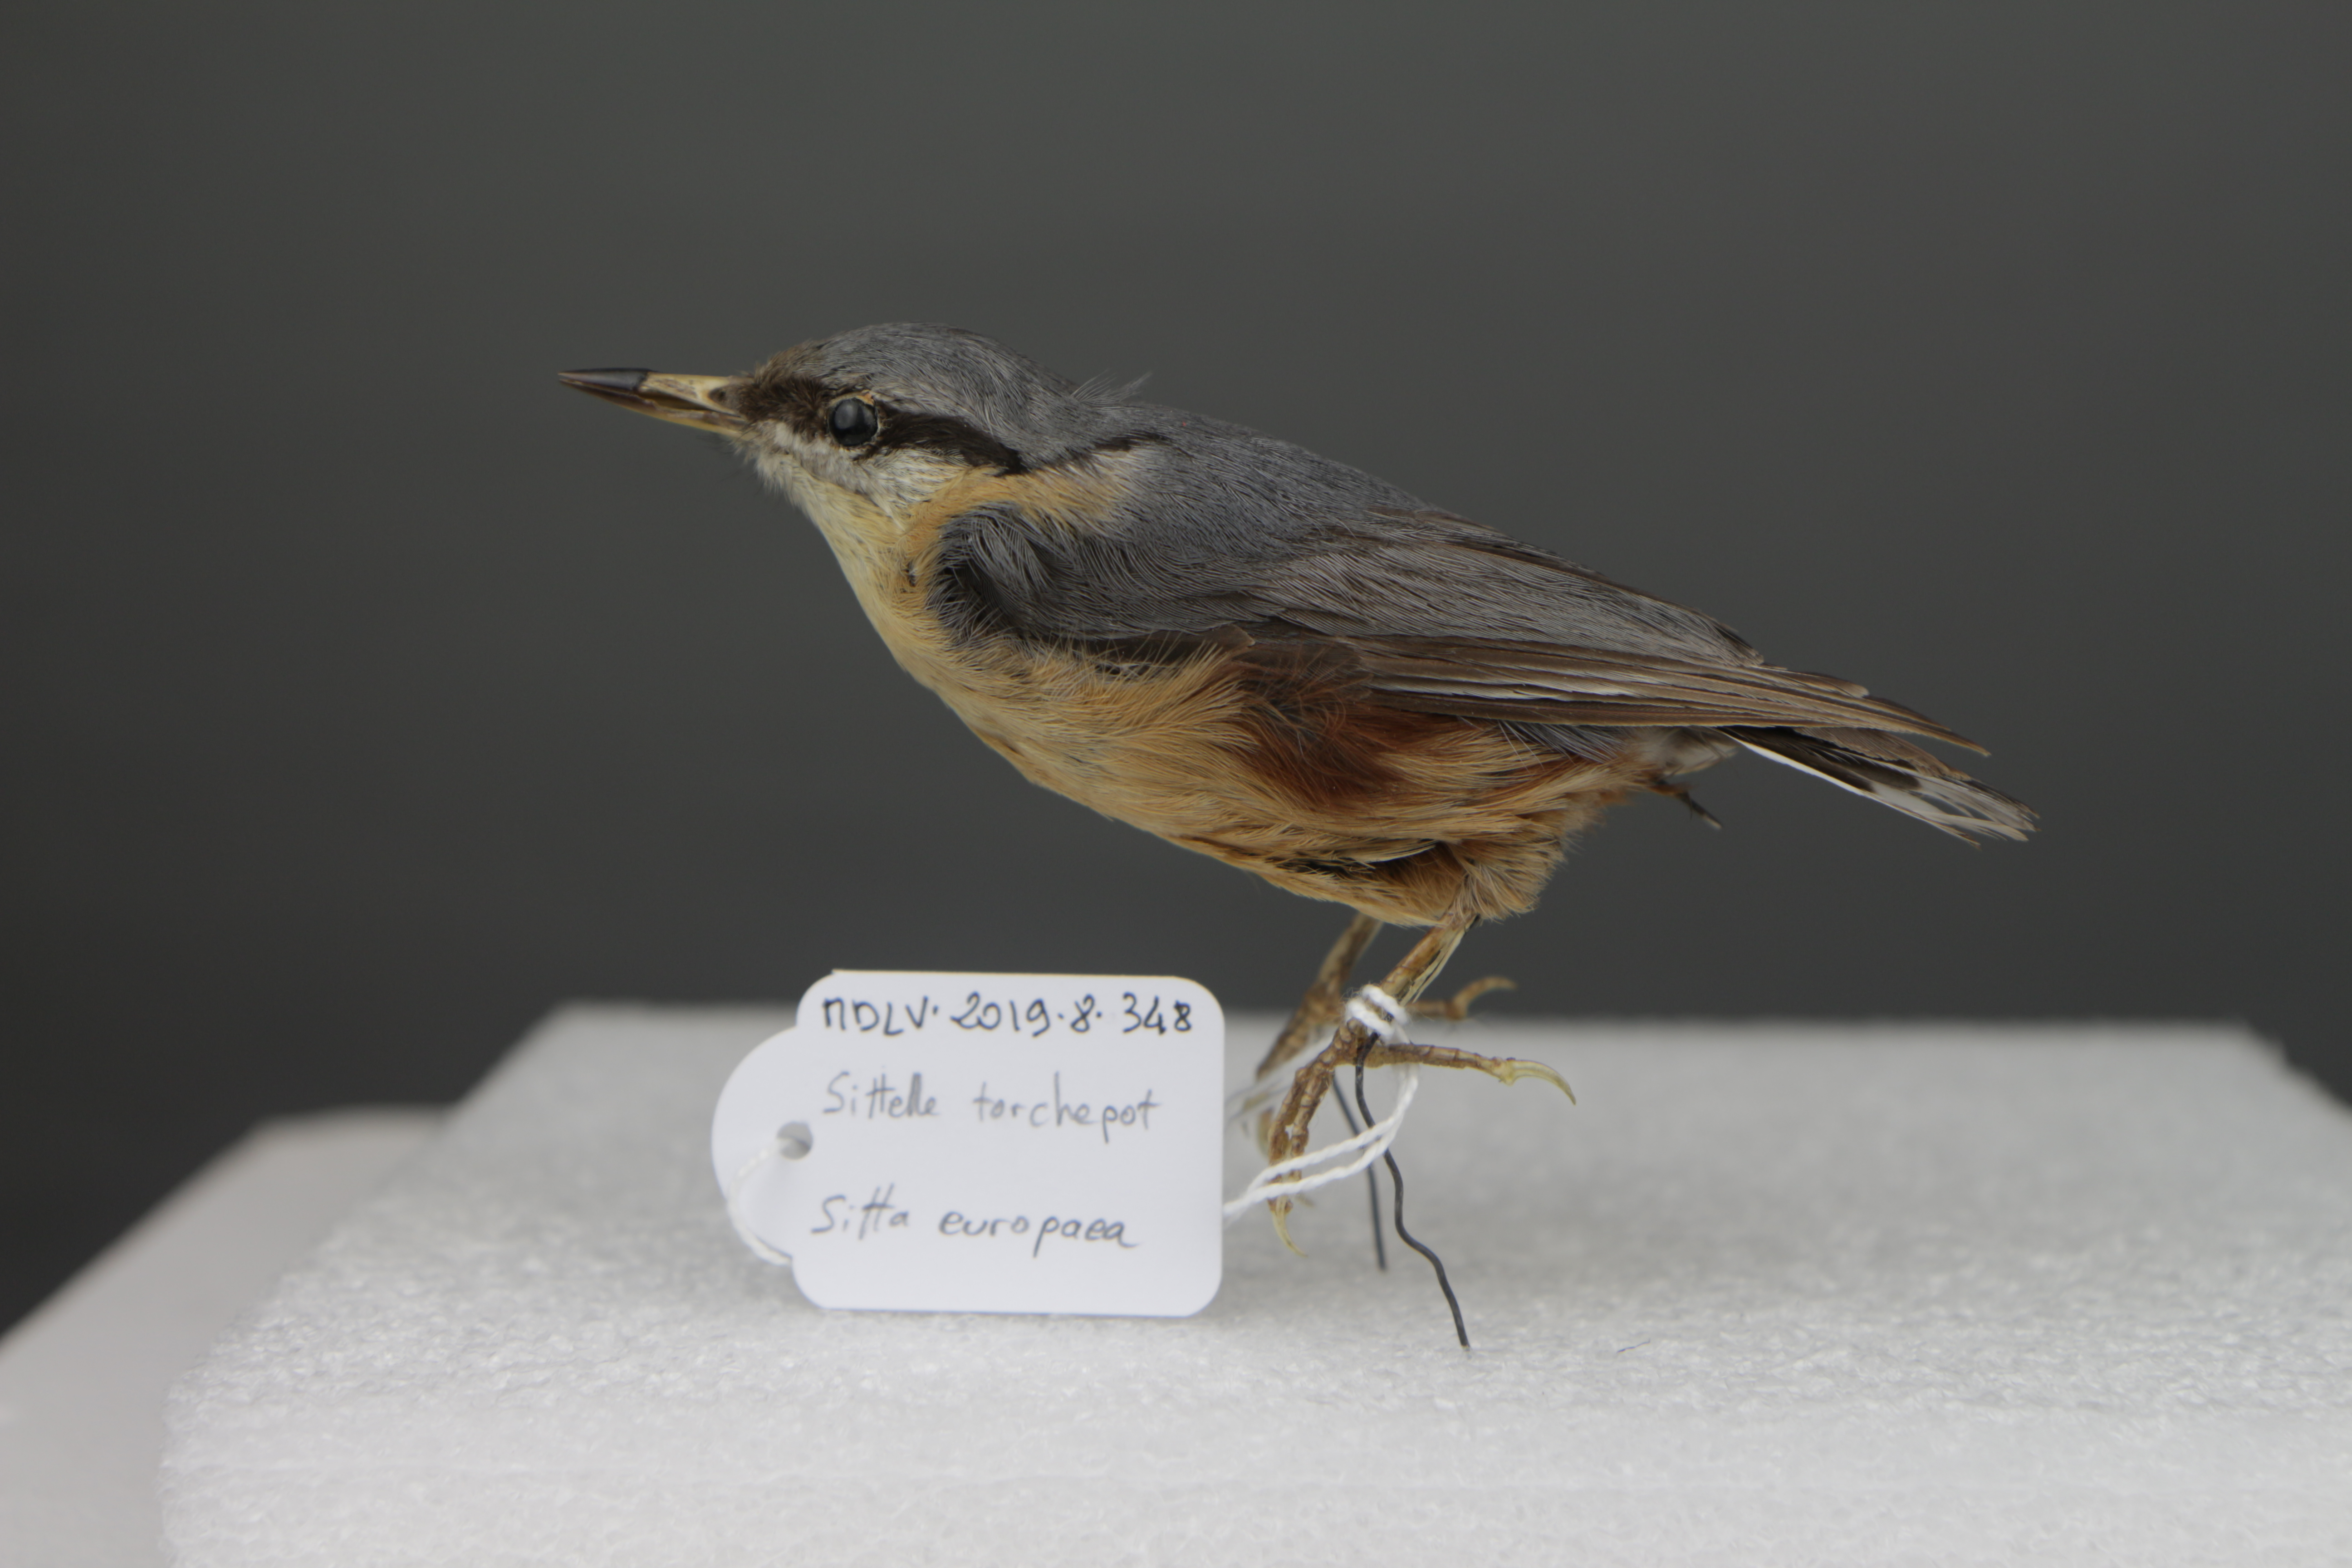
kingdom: Animalia
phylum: Chordata
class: Aves
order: Passeriformes
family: Sittidae
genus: Sitta
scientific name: Sitta europaea
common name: Eurasian nuthatch
